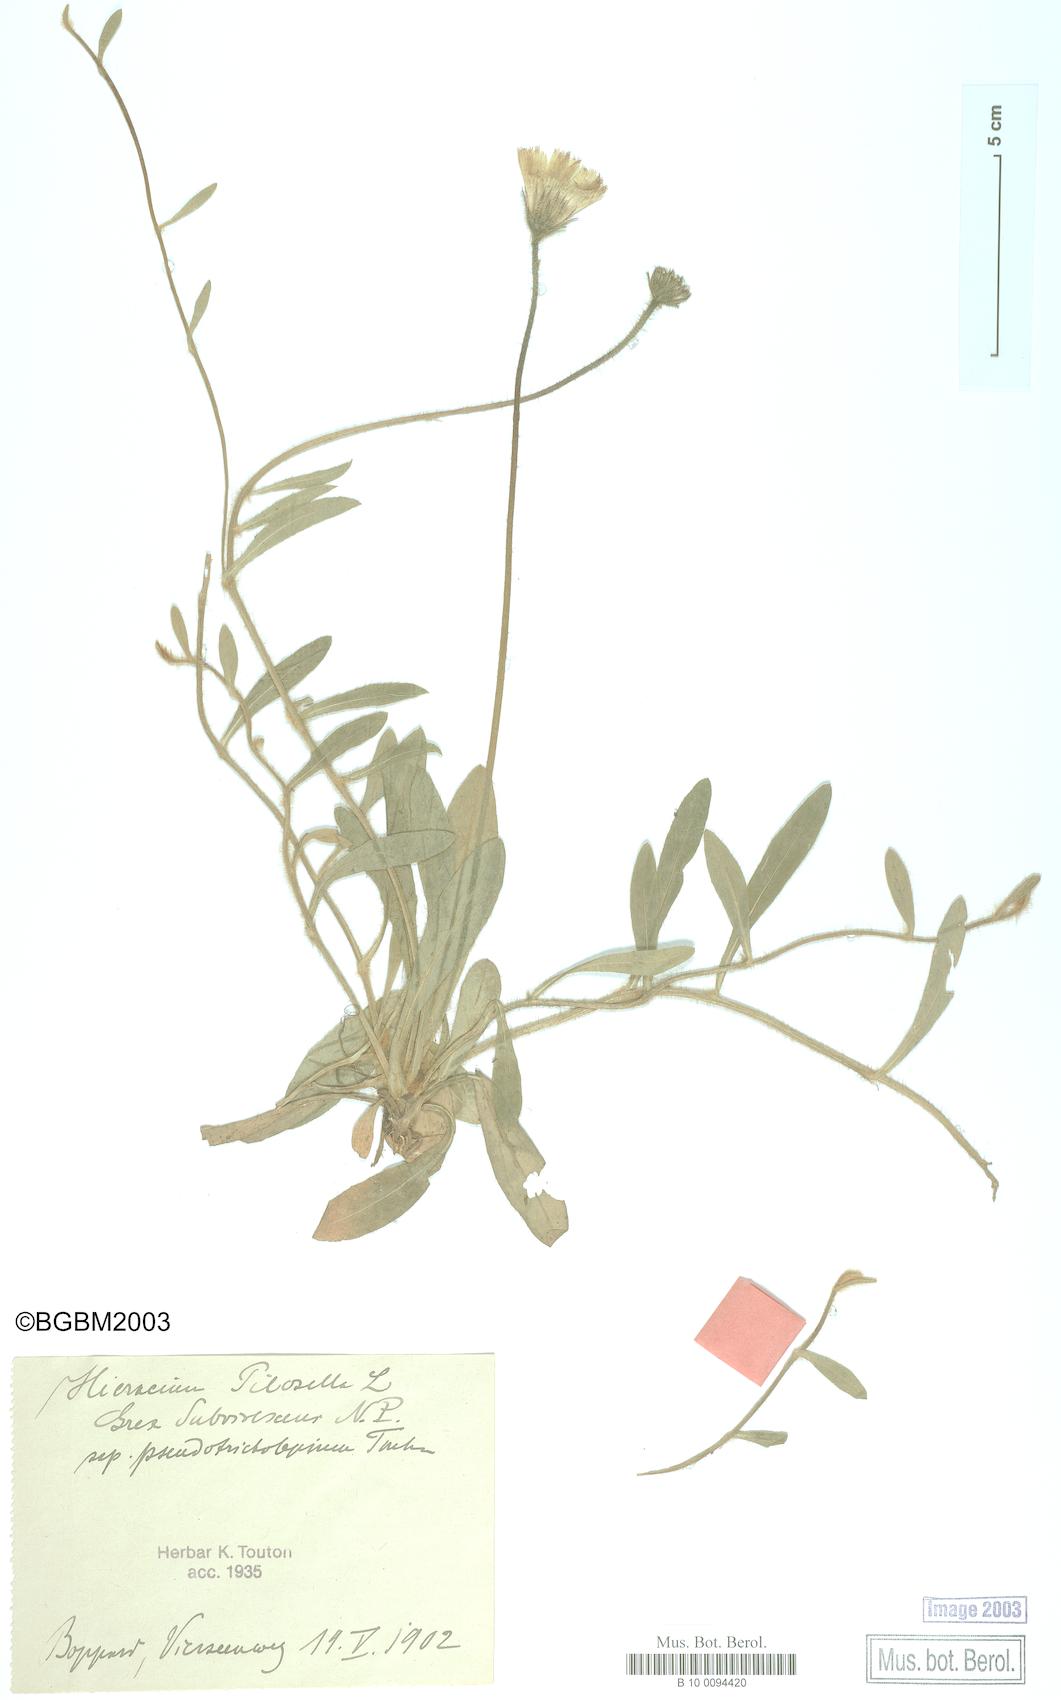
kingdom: Plantae
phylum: Tracheophyta
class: Magnoliopsida
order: Asterales
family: Asteraceae
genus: Pilosella
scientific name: Pilosella officinarum
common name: Mouse-ear hawkweed
